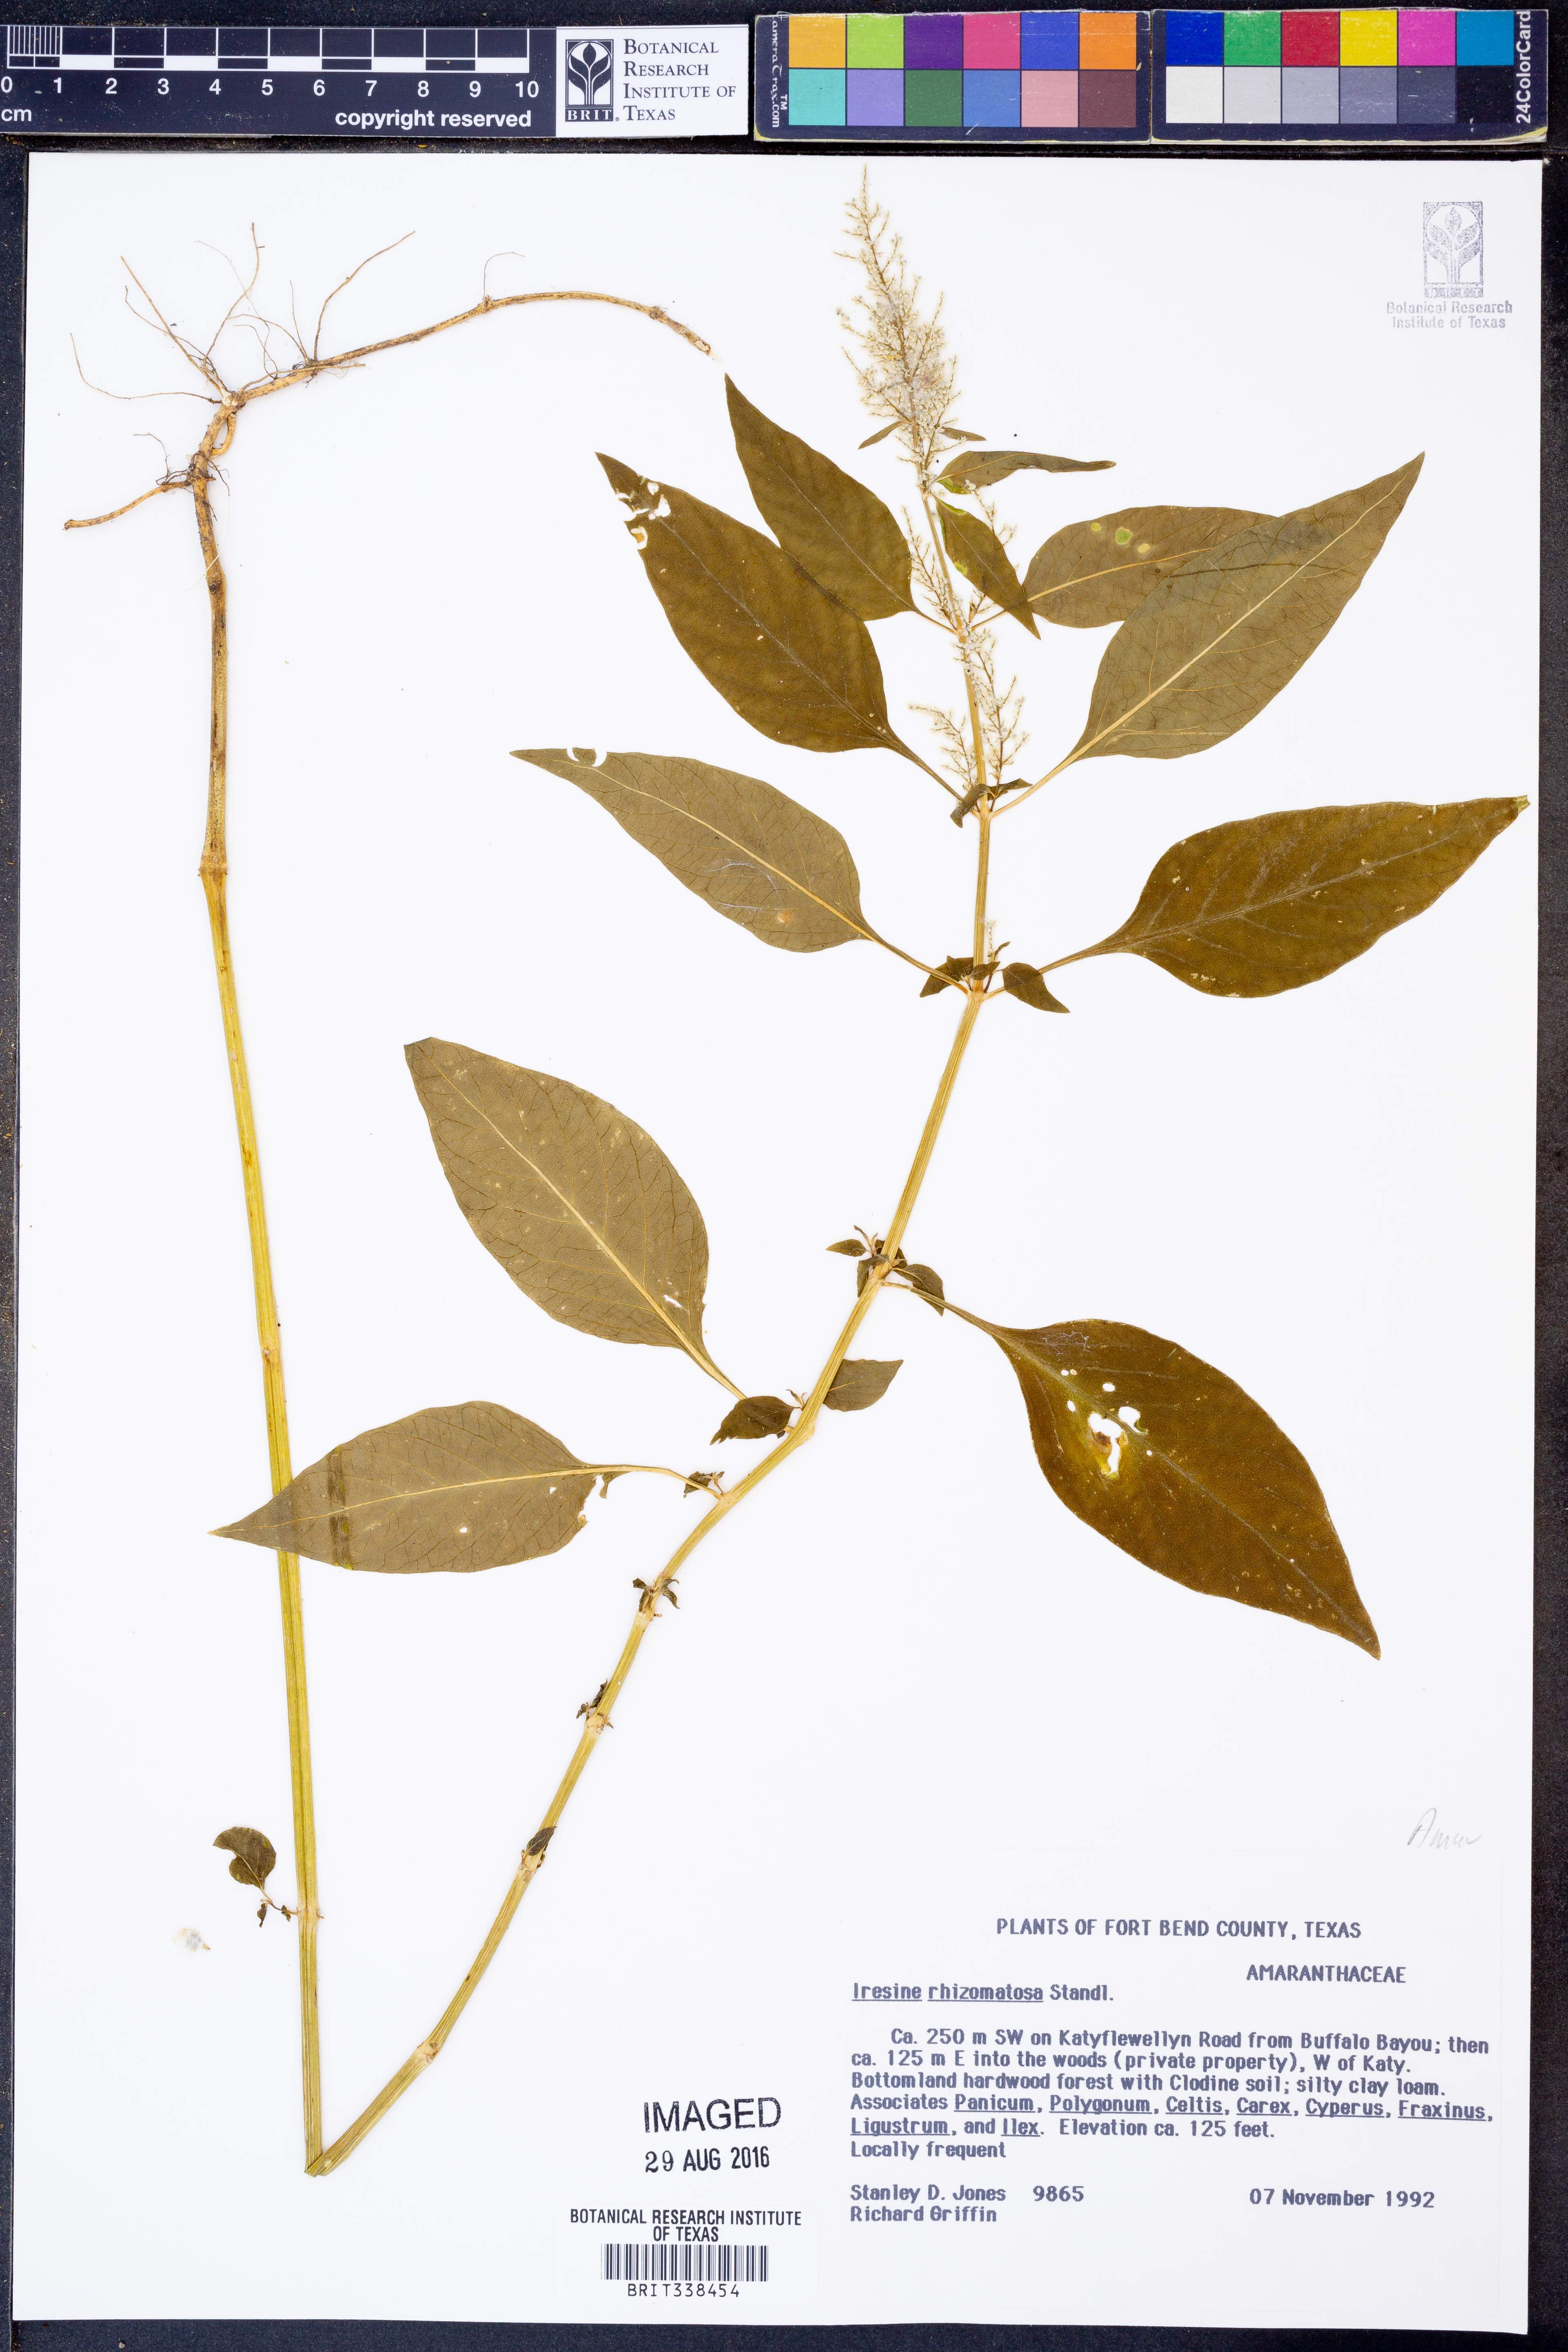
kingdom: Plantae
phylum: Tracheophyta
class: Magnoliopsida
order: Caryophyllales
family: Amaranthaceae
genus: Iresine
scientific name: Iresine rhizomatosa
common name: Juda's-bush
